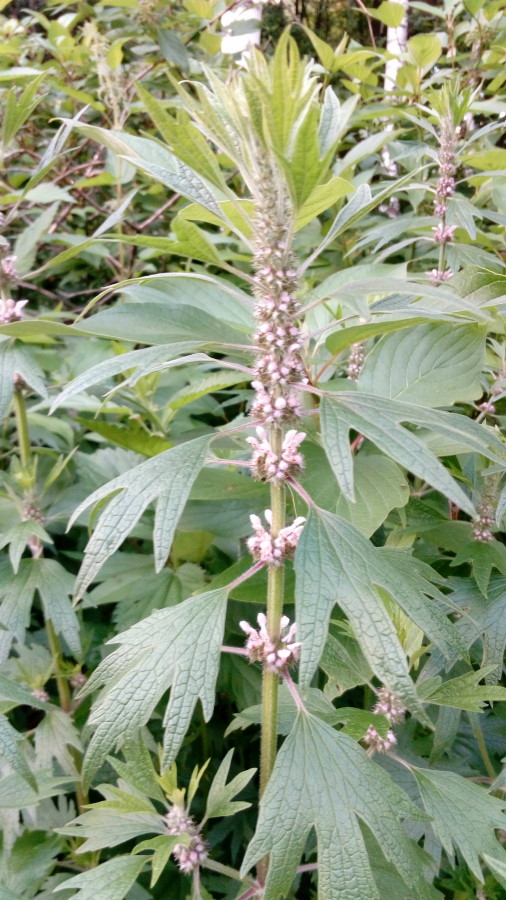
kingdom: Plantae
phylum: Tracheophyta
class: Magnoliopsida
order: Lamiales
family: Lamiaceae
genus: Leonurus
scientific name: Leonurus quinquelobatus
